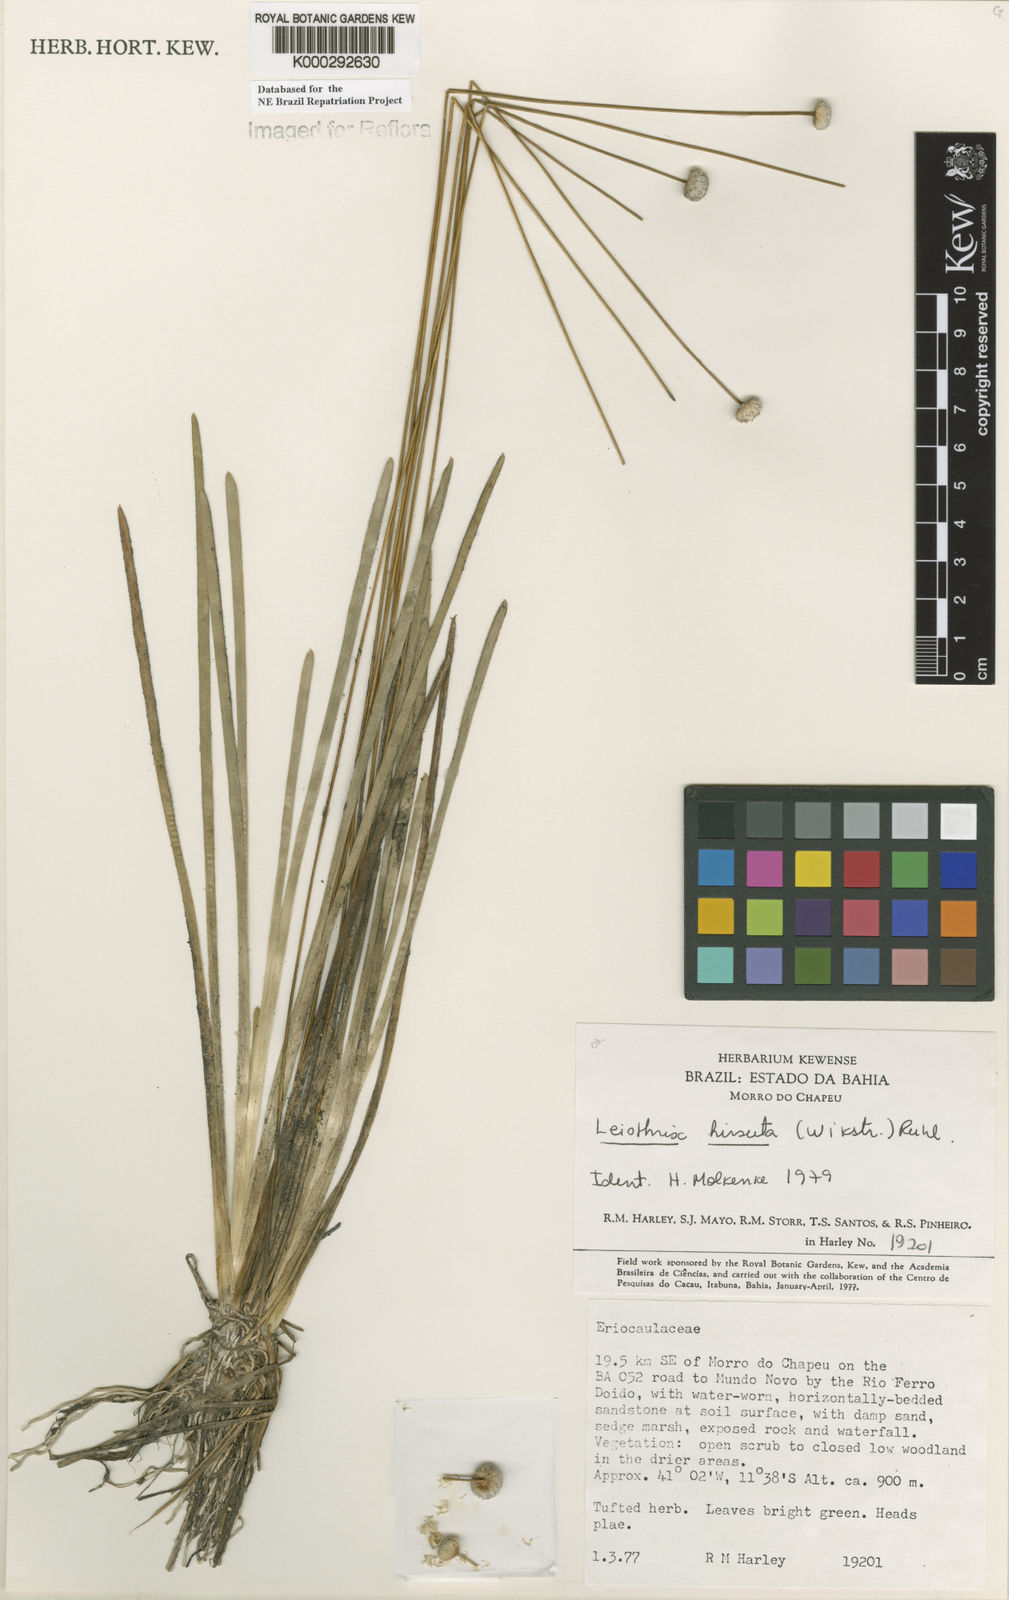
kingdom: Plantae
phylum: Tracheophyta
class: Liliopsida
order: Poales
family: Eriocaulaceae
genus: Leiothrix
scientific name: Leiothrix hirsuta
